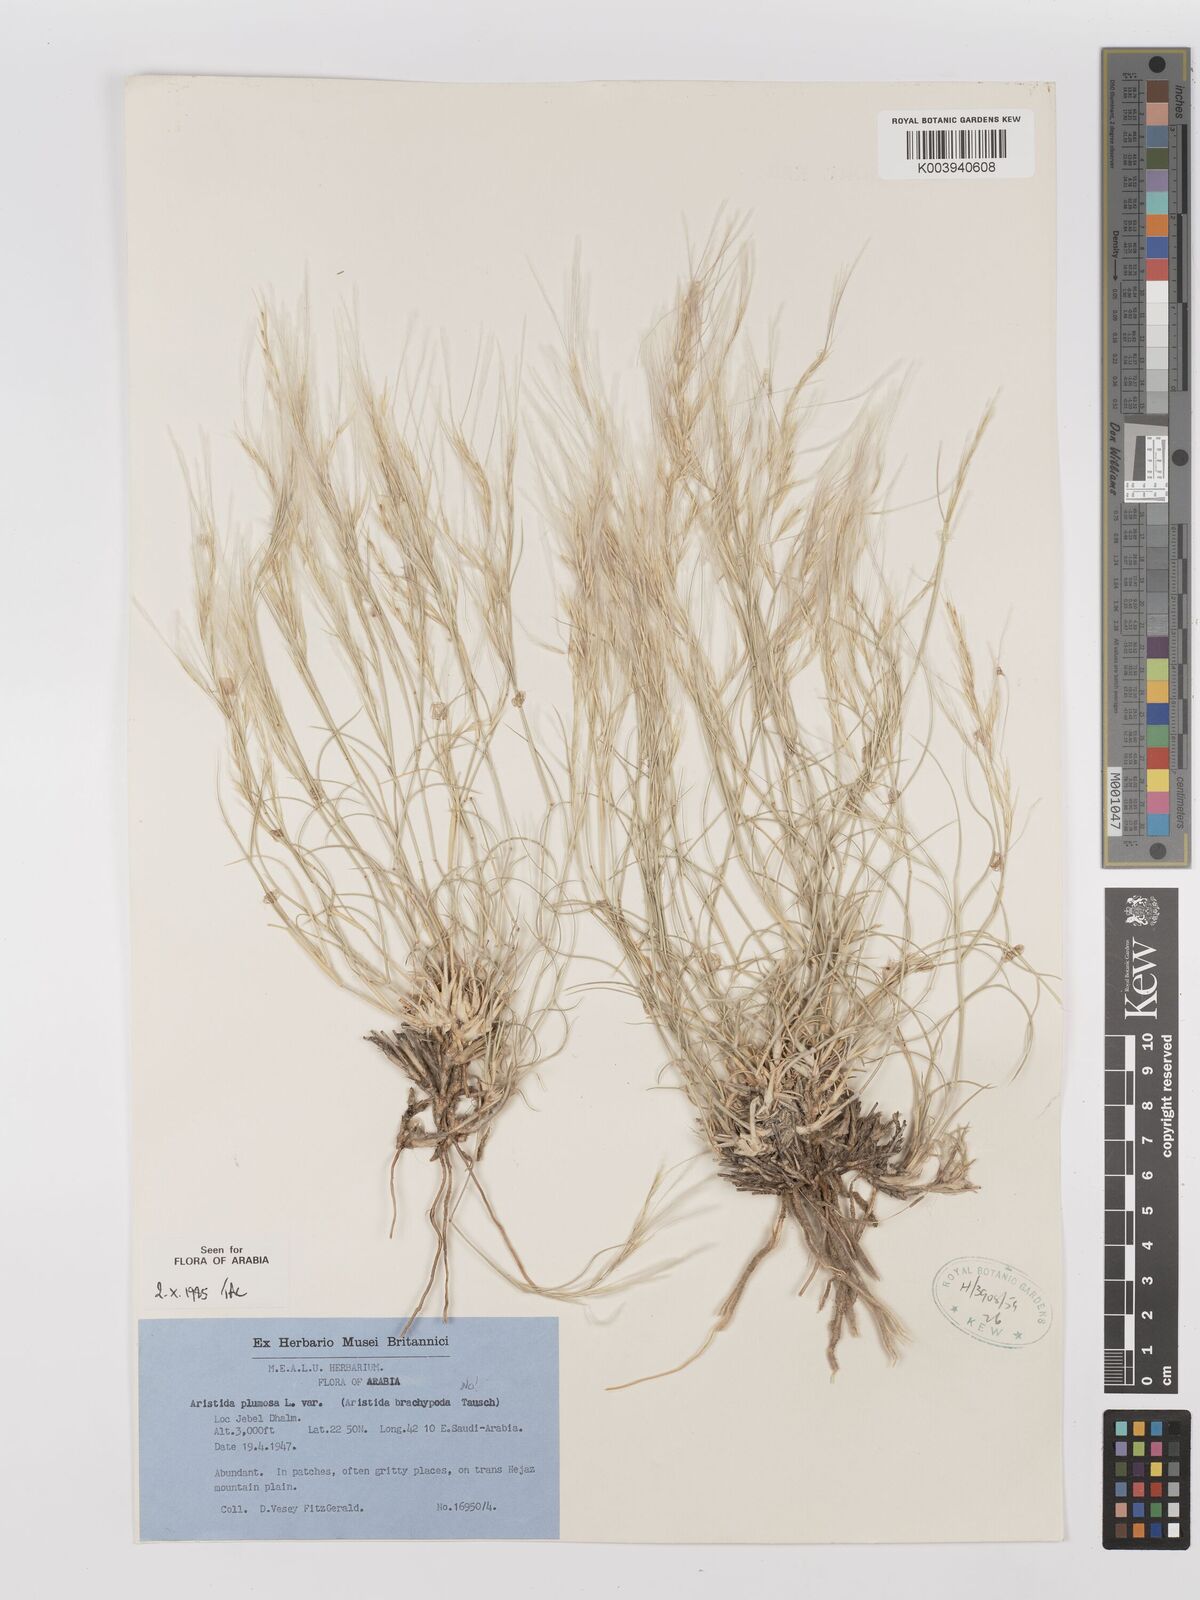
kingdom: Plantae
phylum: Tracheophyta
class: Liliopsida
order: Poales
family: Poaceae
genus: Stipagrostis
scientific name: Stipagrostis plumosa
